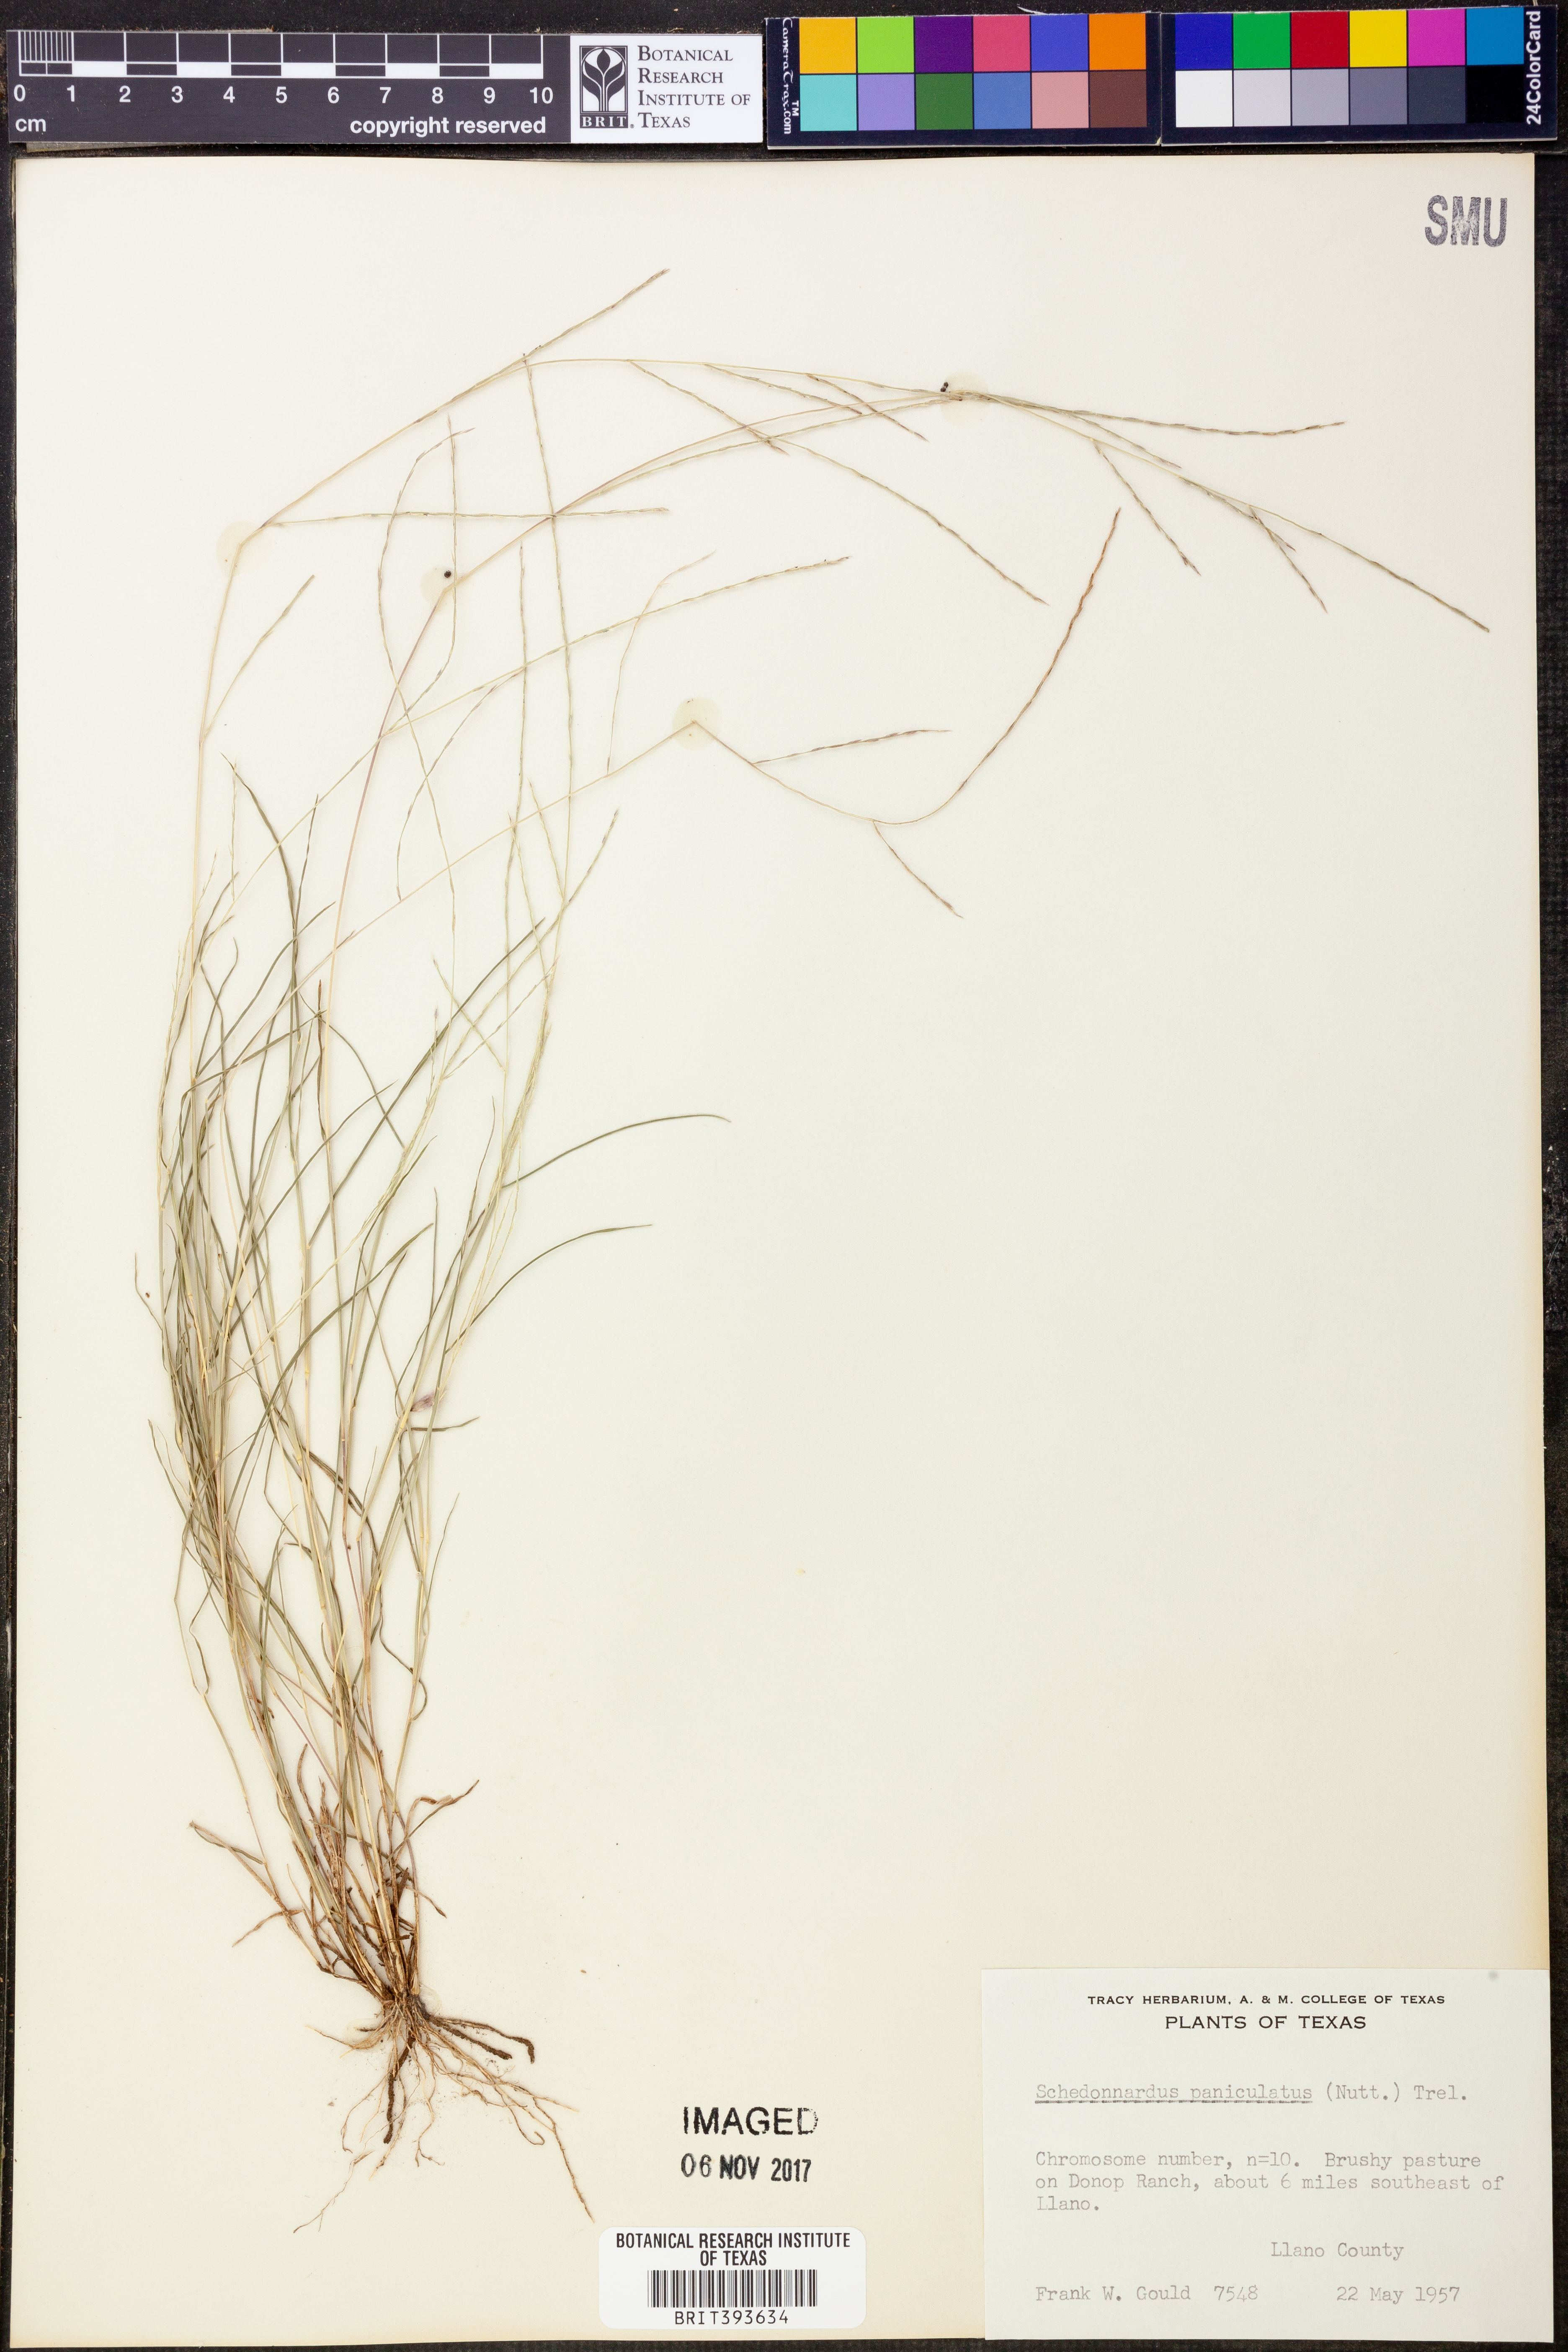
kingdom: Plantae
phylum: Tracheophyta
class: Liliopsida
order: Poales
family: Poaceae
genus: Muhlenbergia
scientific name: Muhlenbergia paniculata
